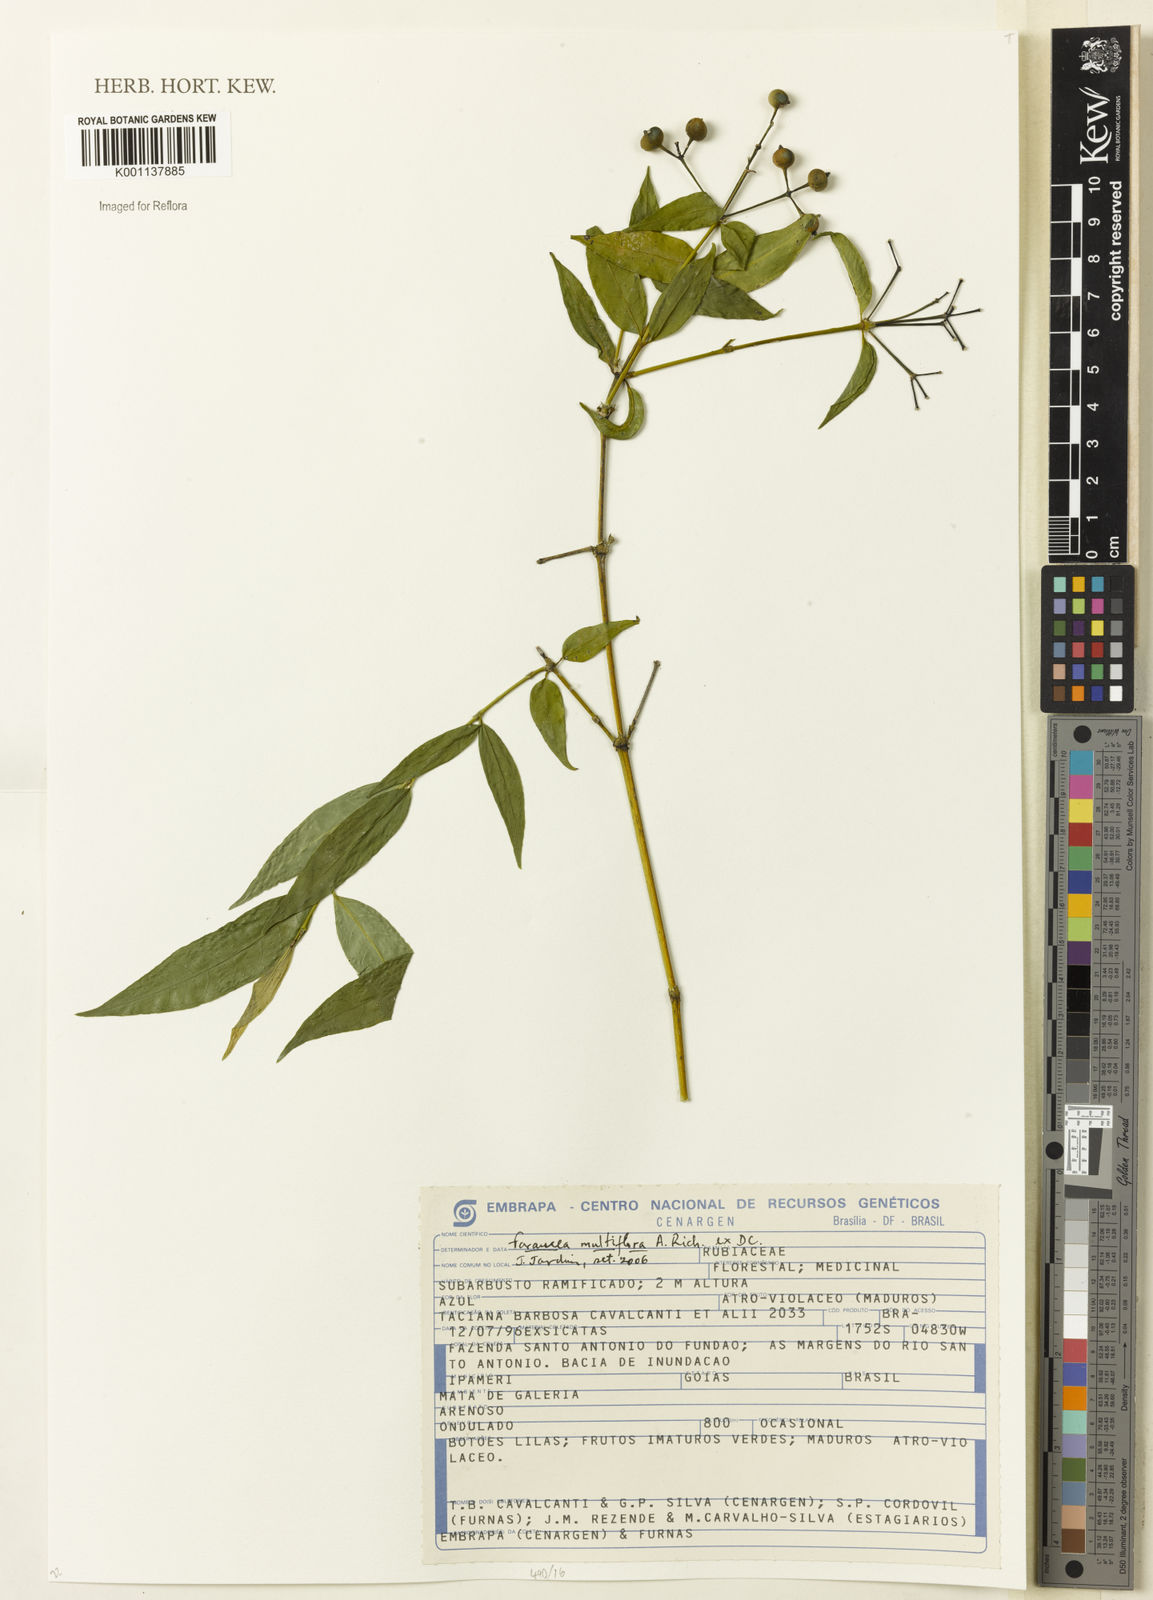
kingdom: Plantae
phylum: Tracheophyta
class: Magnoliopsida
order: Gentianales
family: Rubiaceae
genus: Faramea
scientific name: Faramea multiflora
